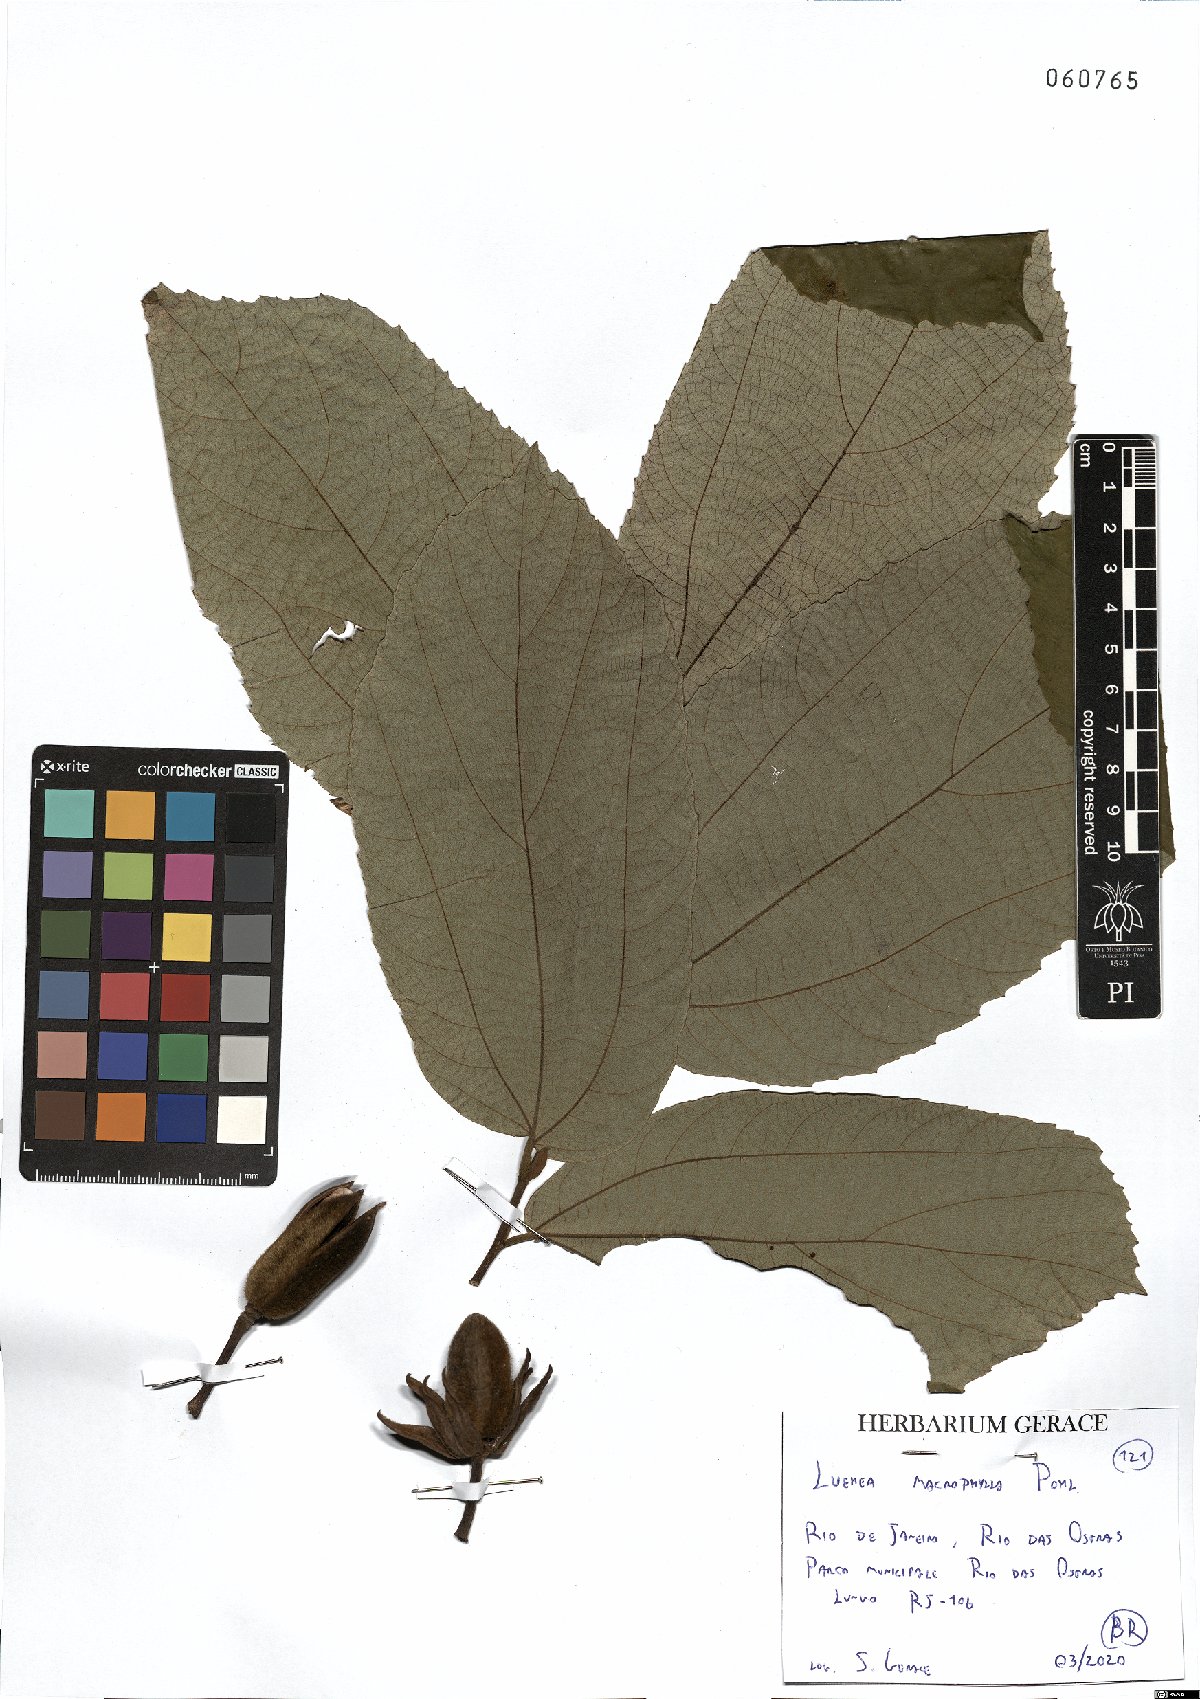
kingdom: Plantae
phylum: Tracheophyta
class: Magnoliopsida
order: Malvales
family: Malvaceae
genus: Luehea
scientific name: Luehea rufescens
